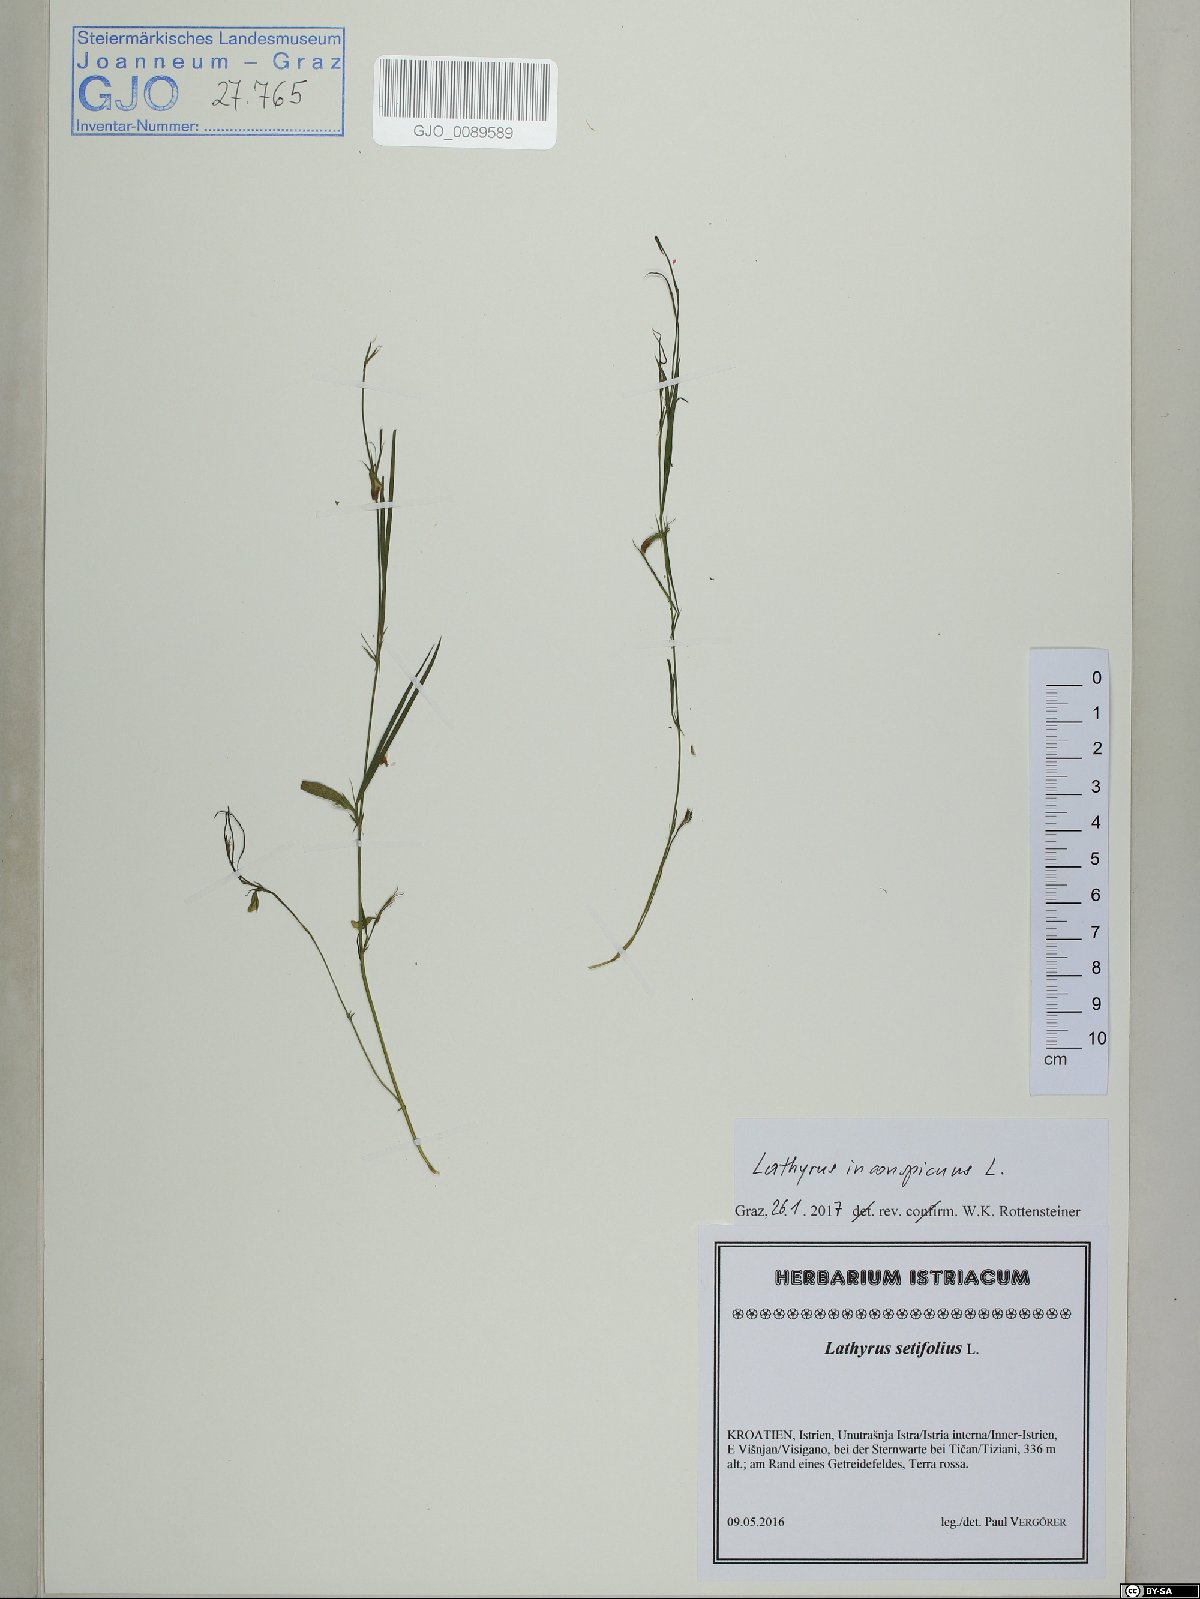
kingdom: Plantae
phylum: Tracheophyta
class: Magnoliopsida
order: Fabales
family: Fabaceae
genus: Lathyrus
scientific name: Lathyrus inconspicuus
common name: Inconspicuous pea
